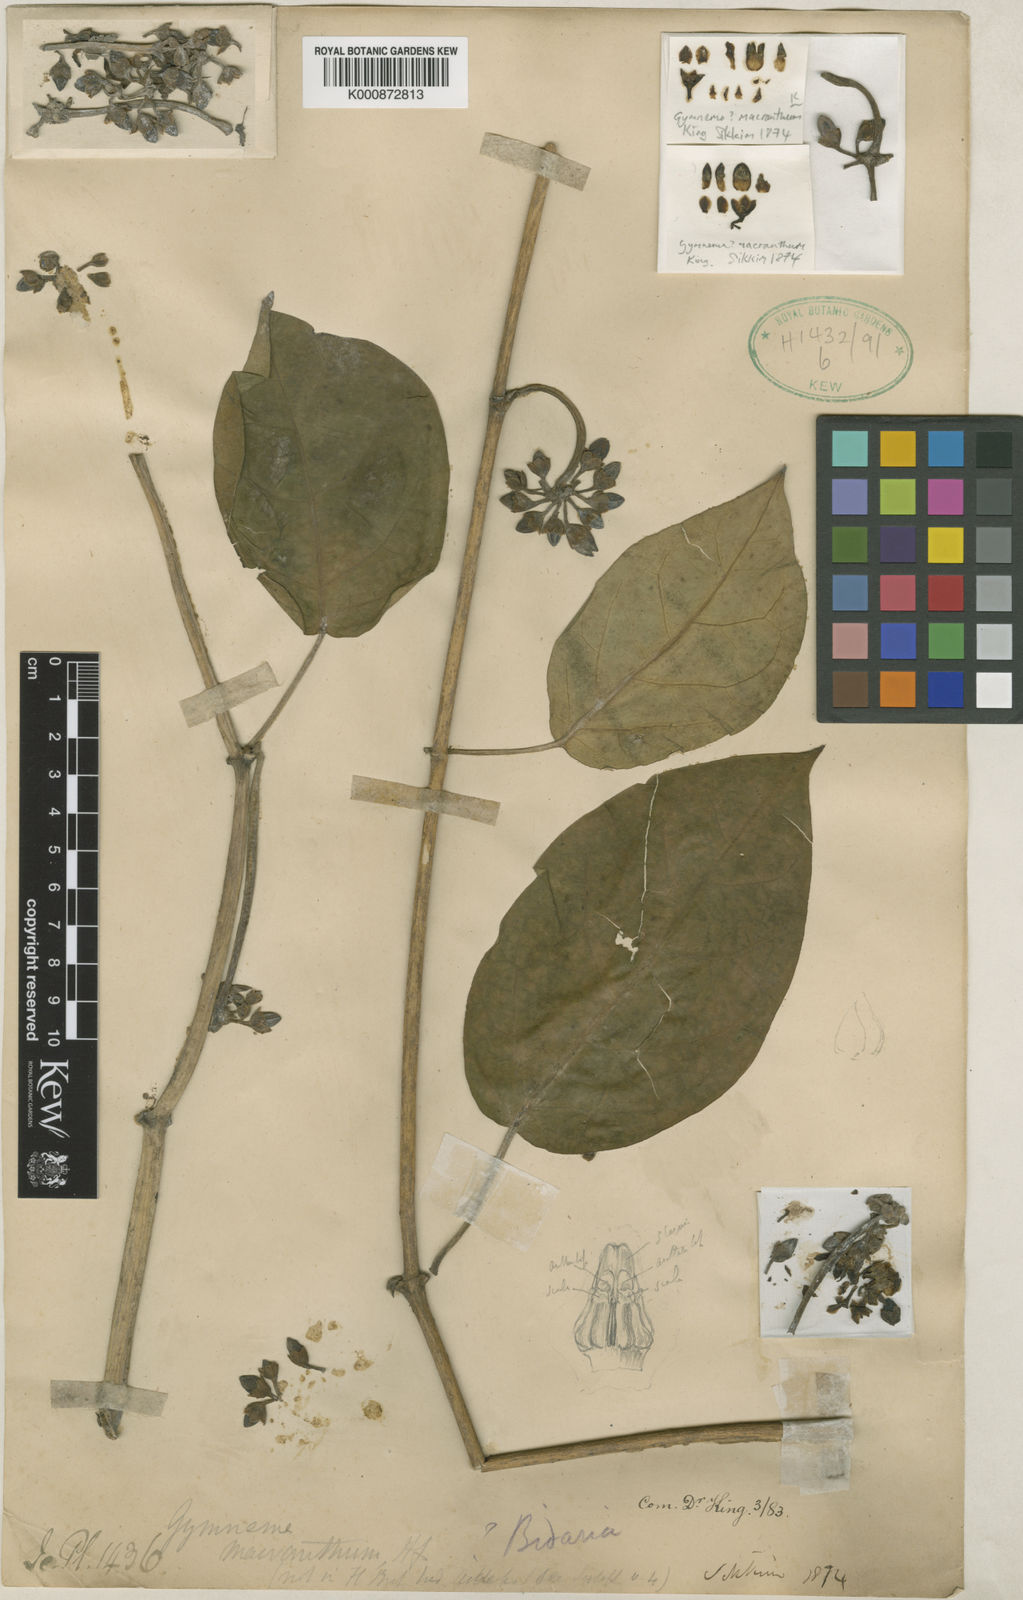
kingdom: Plantae
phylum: Tracheophyta
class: Magnoliopsida
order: Gentianales
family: Apocynaceae
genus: Gymnema
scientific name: Gymnema macranthum
